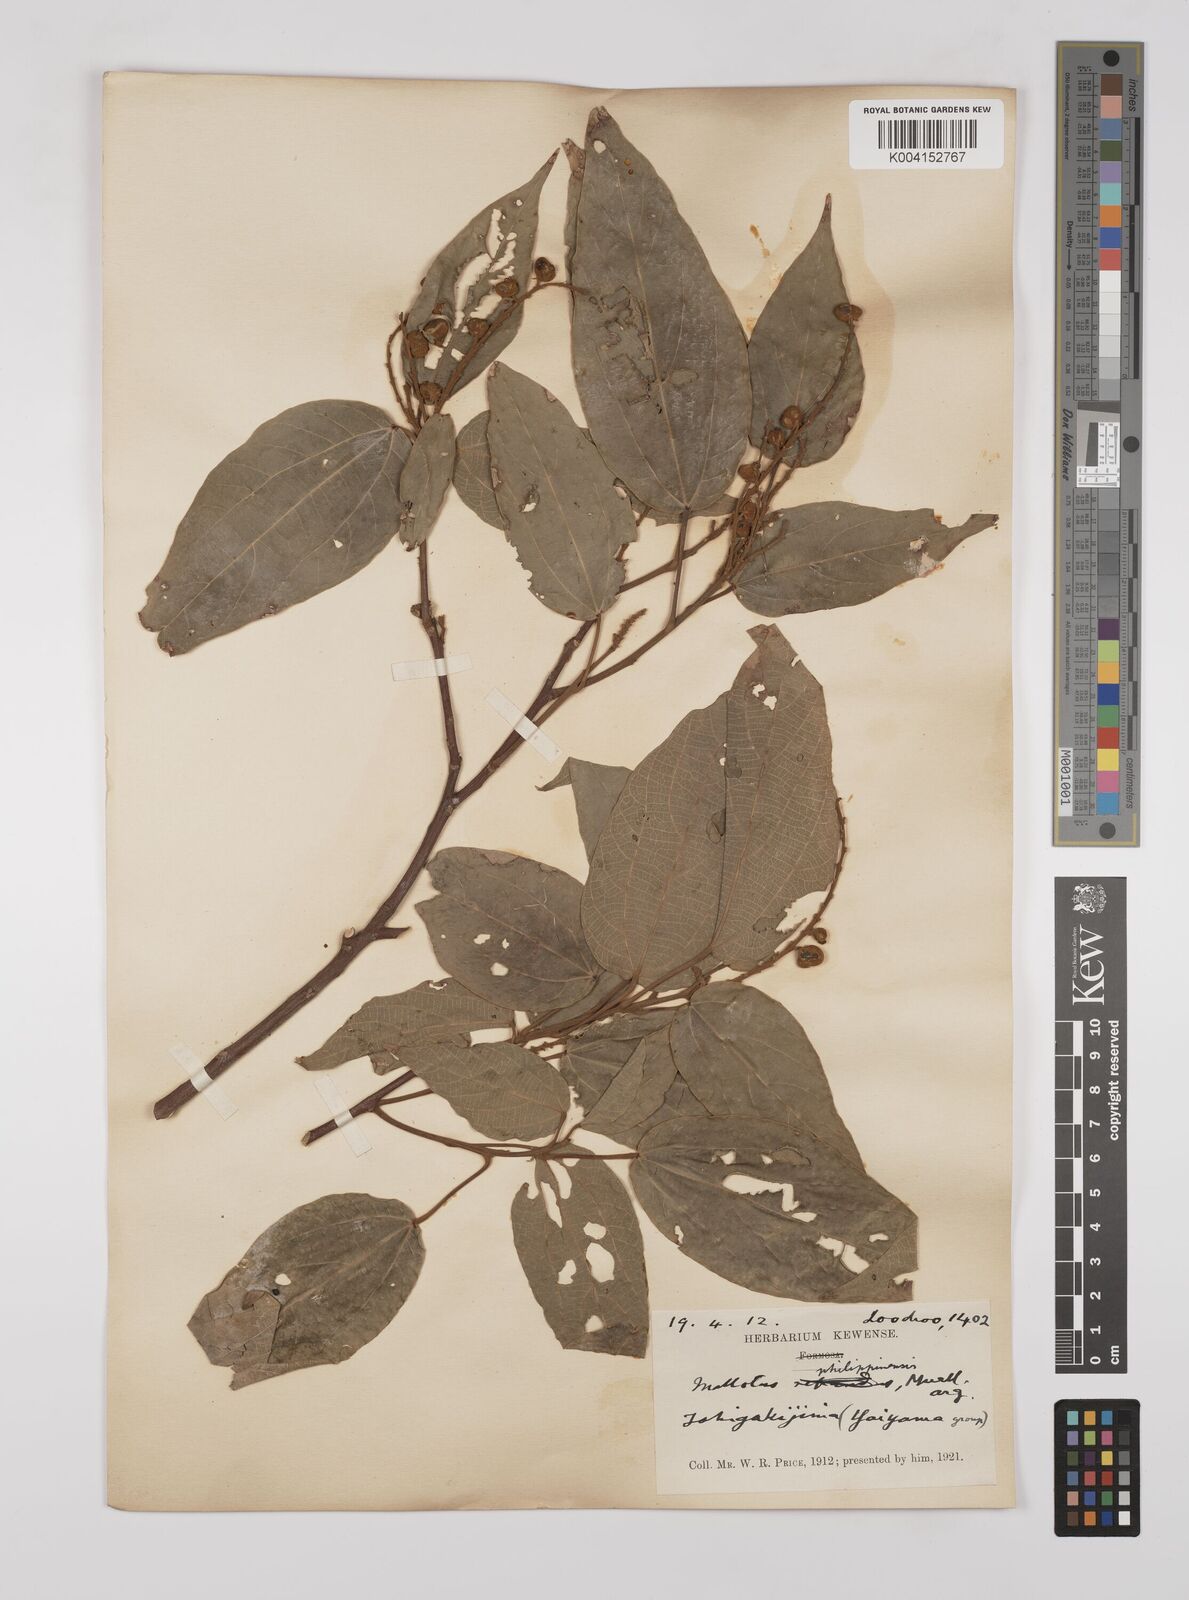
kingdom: Plantae
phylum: Tracheophyta
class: Magnoliopsida
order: Malpighiales
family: Euphorbiaceae
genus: Mallotus
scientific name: Mallotus philippensis
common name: Kamala tree
